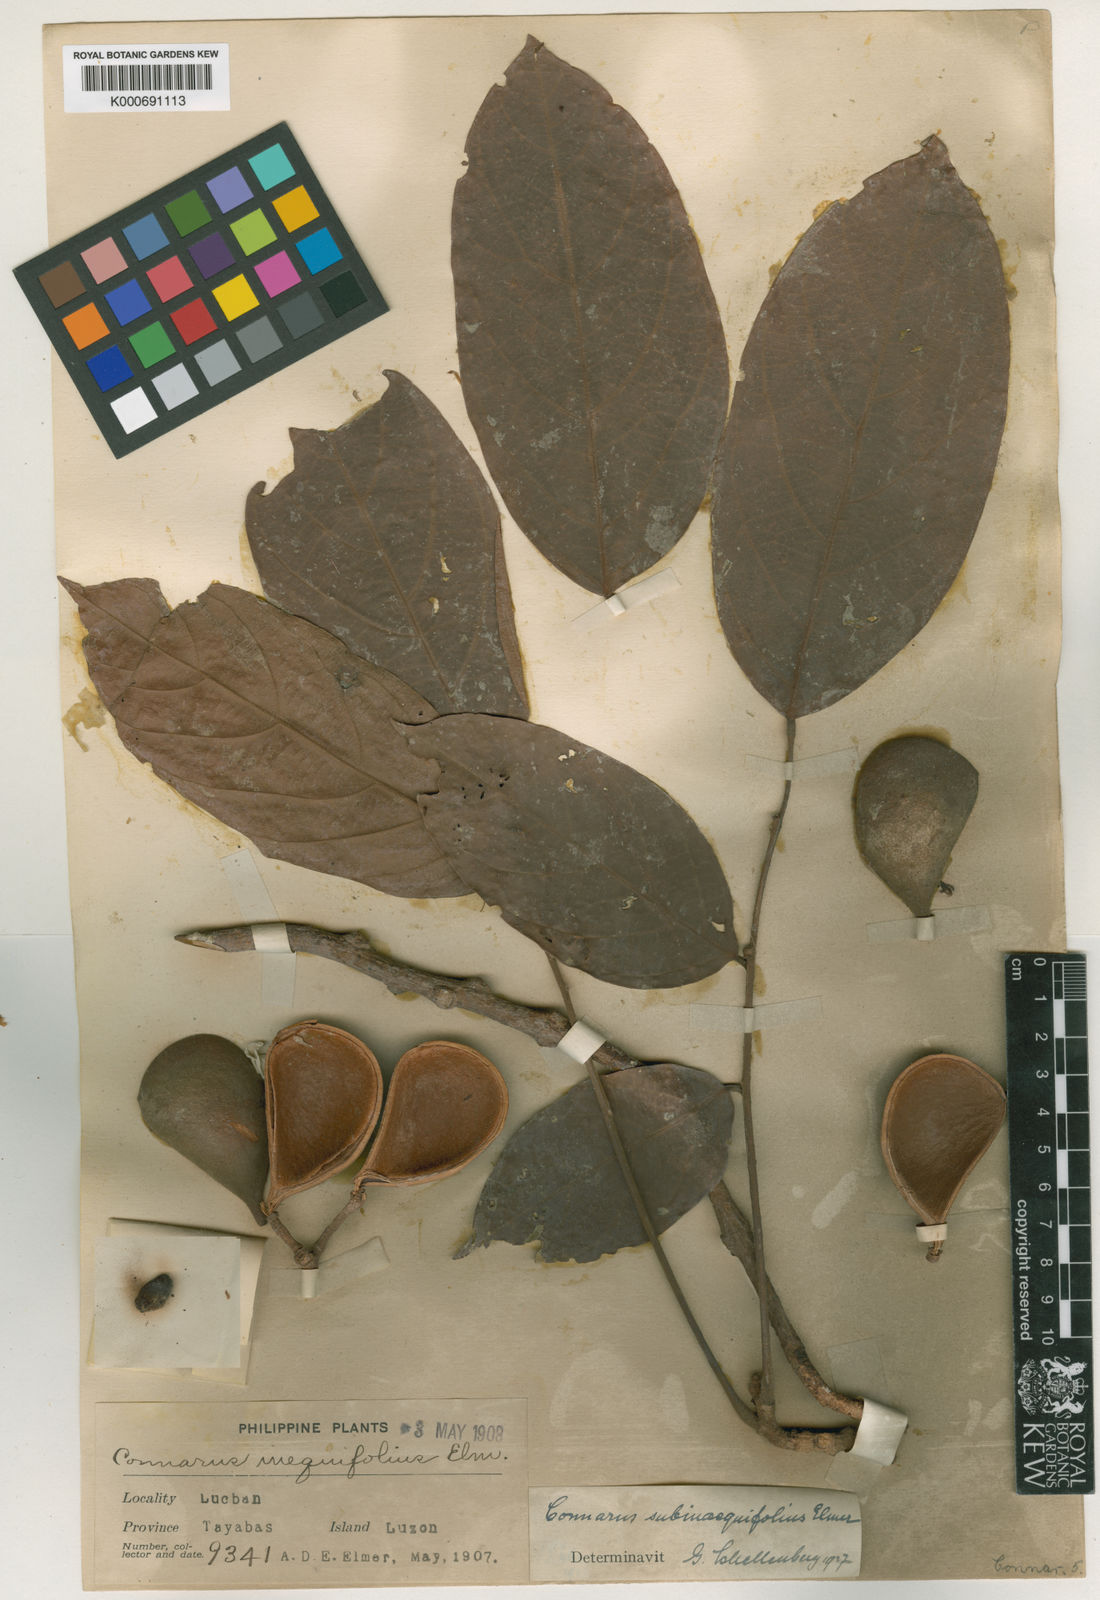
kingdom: Plantae
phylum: Tracheophyta
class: Magnoliopsida
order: Oxalidales
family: Connaraceae
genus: Connarus
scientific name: Connarus subinaequifolius
